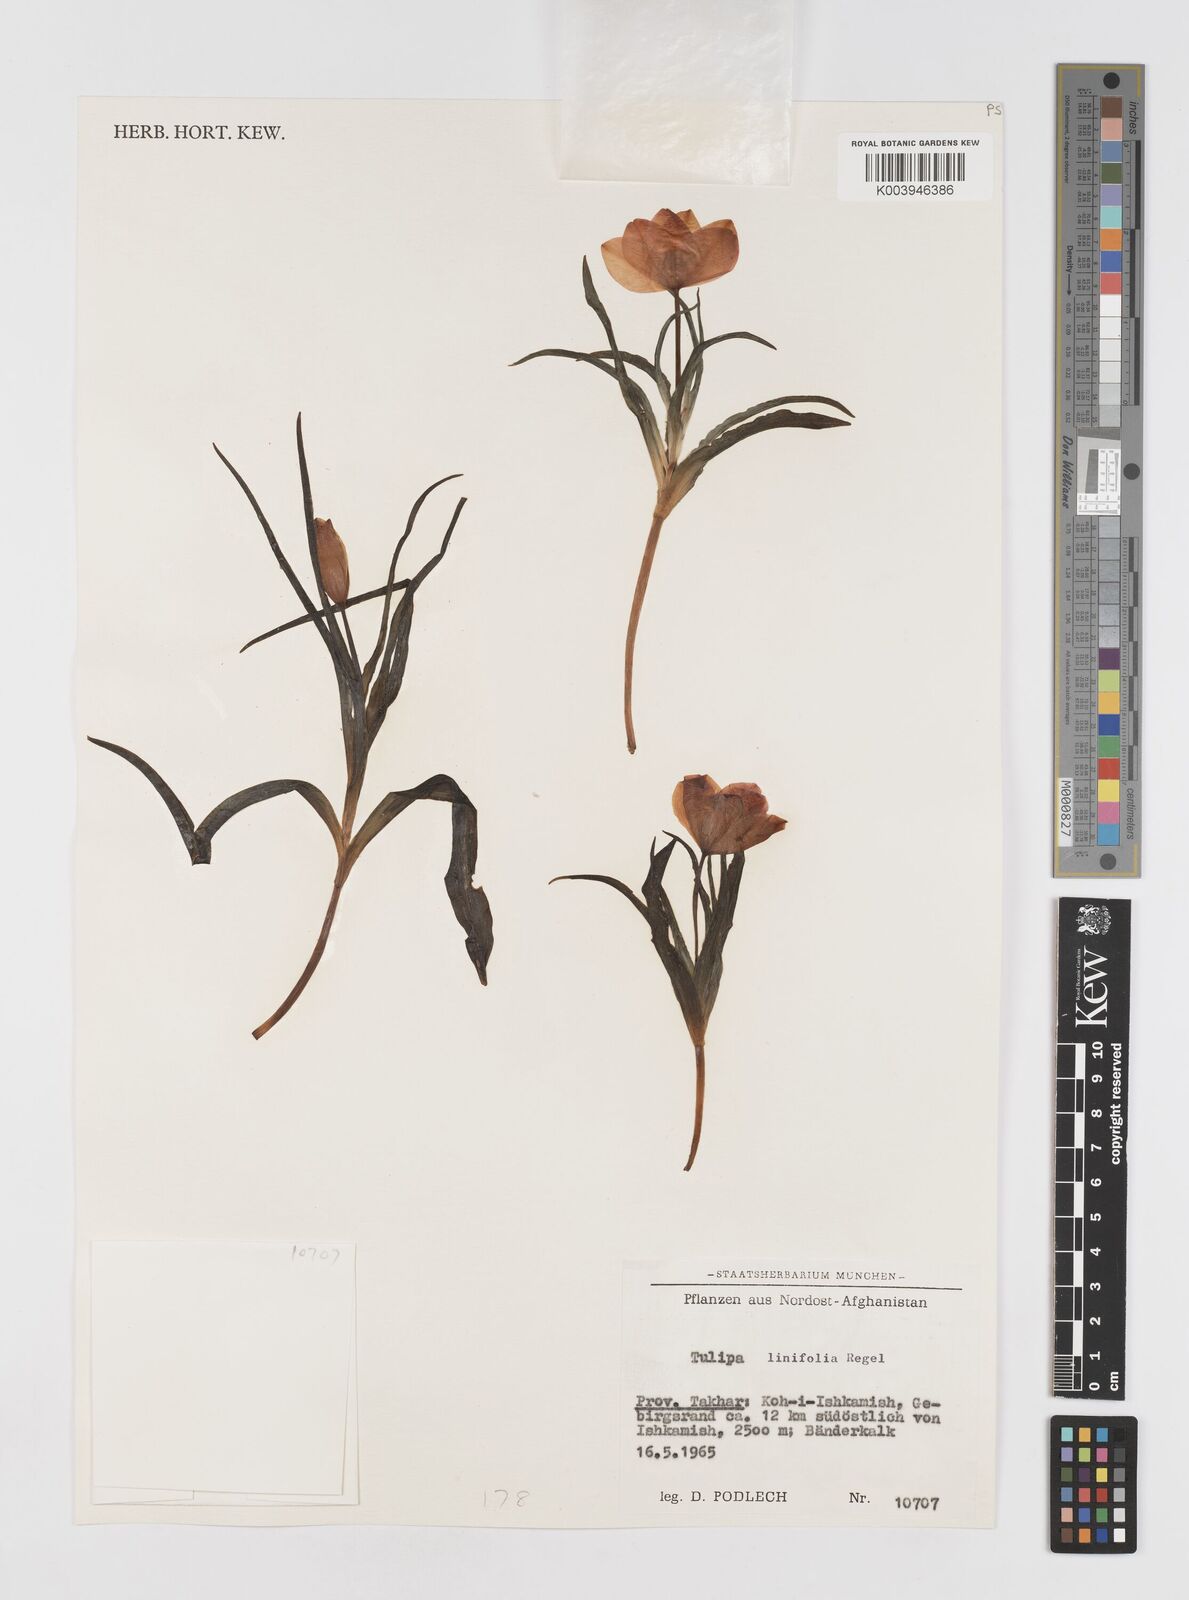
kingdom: Plantae
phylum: Tracheophyta
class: Liliopsida
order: Liliales
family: Liliaceae
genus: Tulipa
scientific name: Tulipa linifolia
